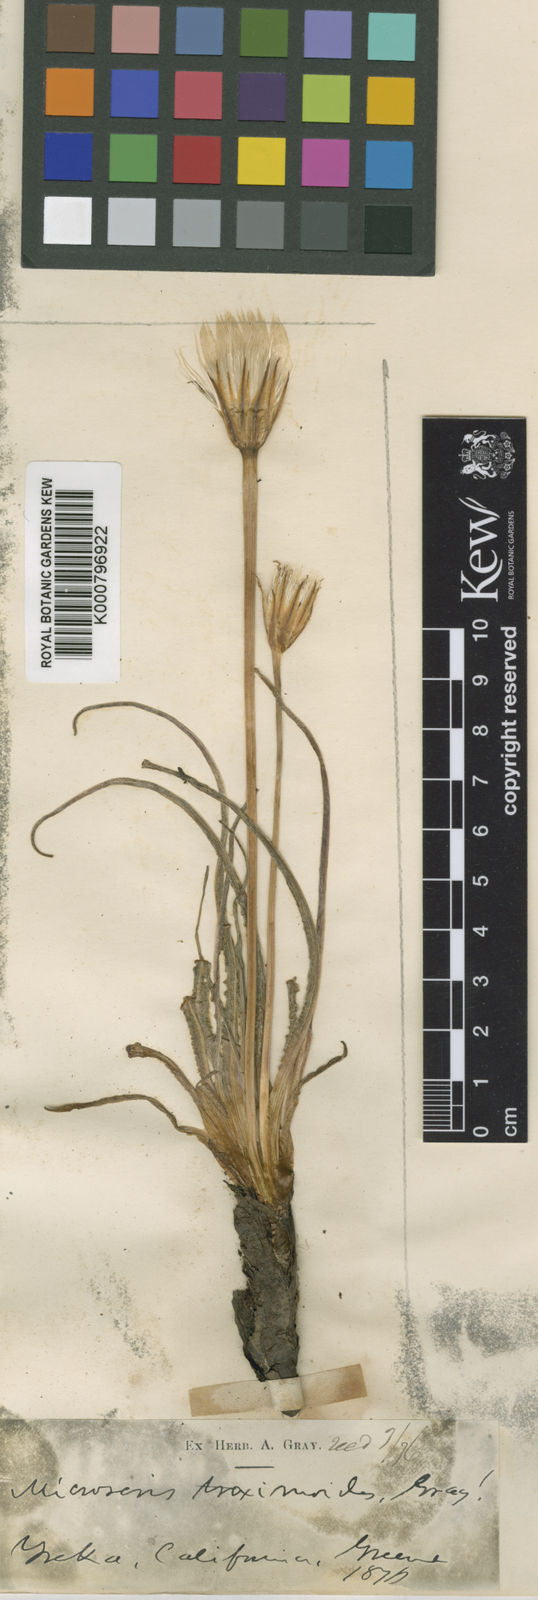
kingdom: Plantae
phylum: Tracheophyta
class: Magnoliopsida
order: Asterales
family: Asteraceae
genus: Microseris
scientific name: Microseris troximoides
